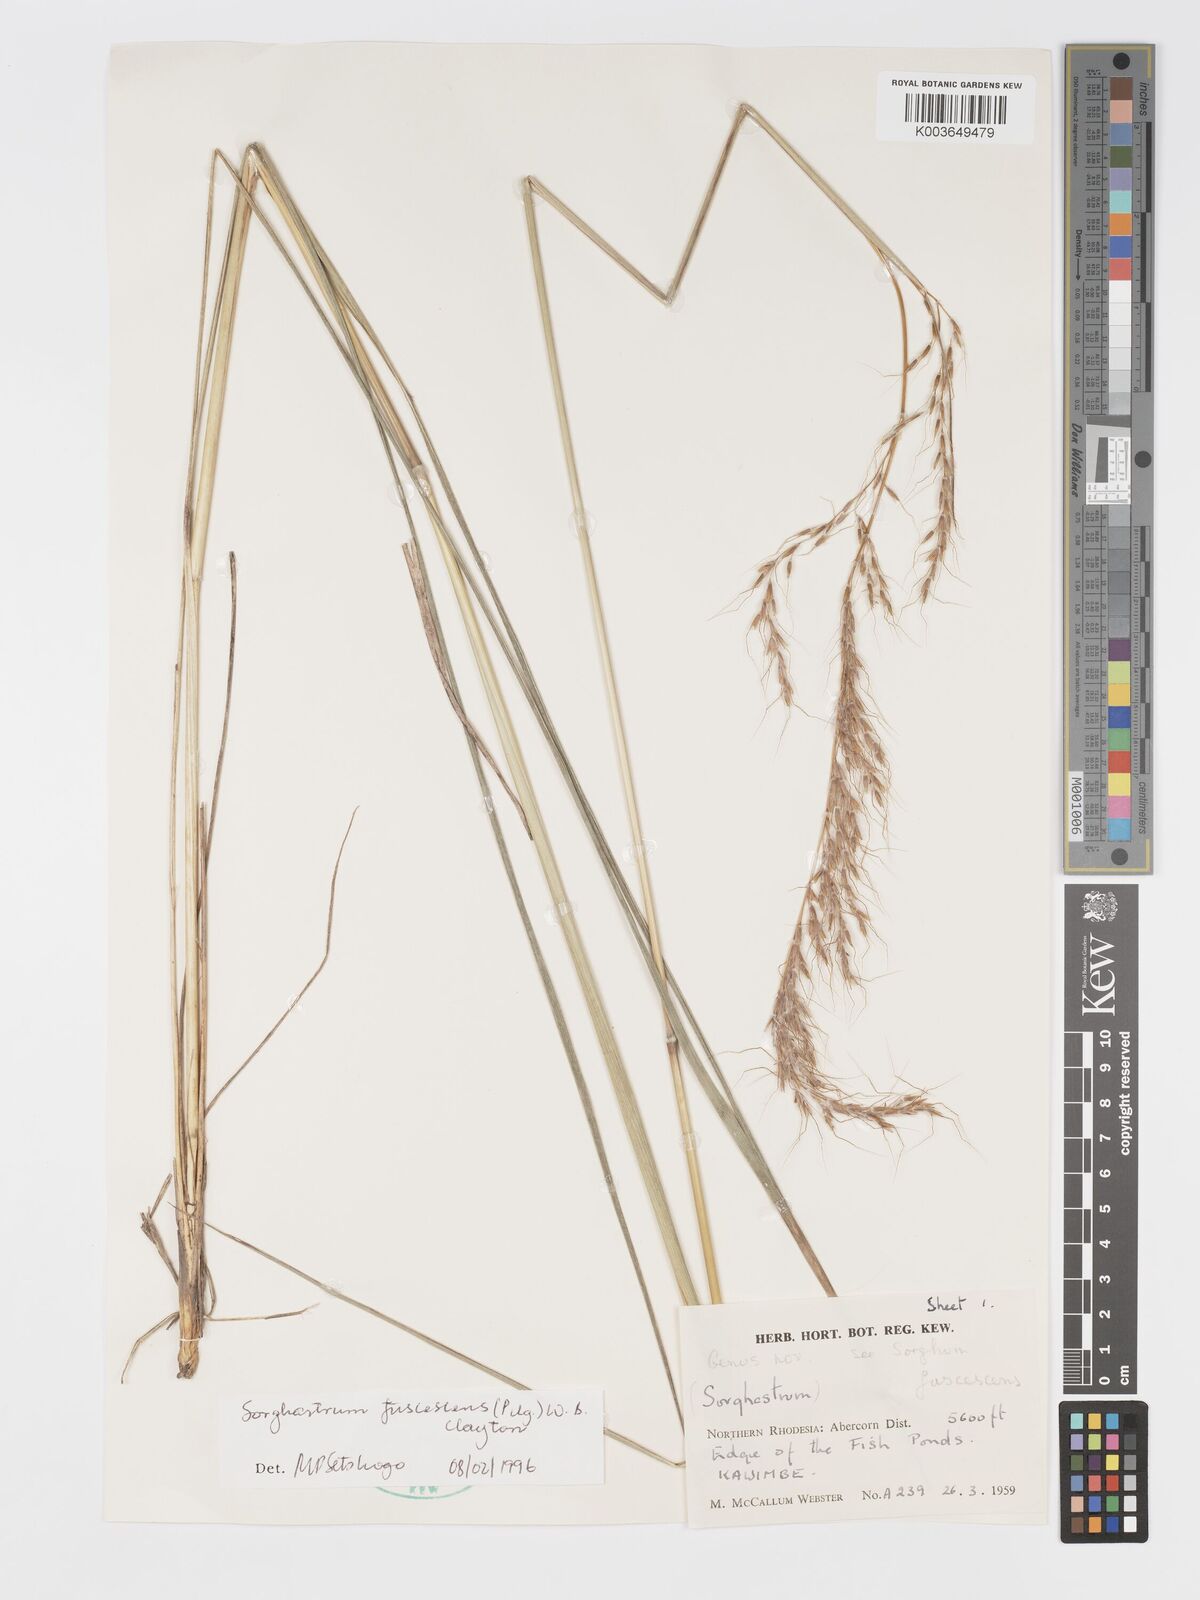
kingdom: Plantae
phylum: Tracheophyta
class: Liliopsida
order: Poales
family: Poaceae
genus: Sorghastrum
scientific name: Sorghastrum fuscescens
